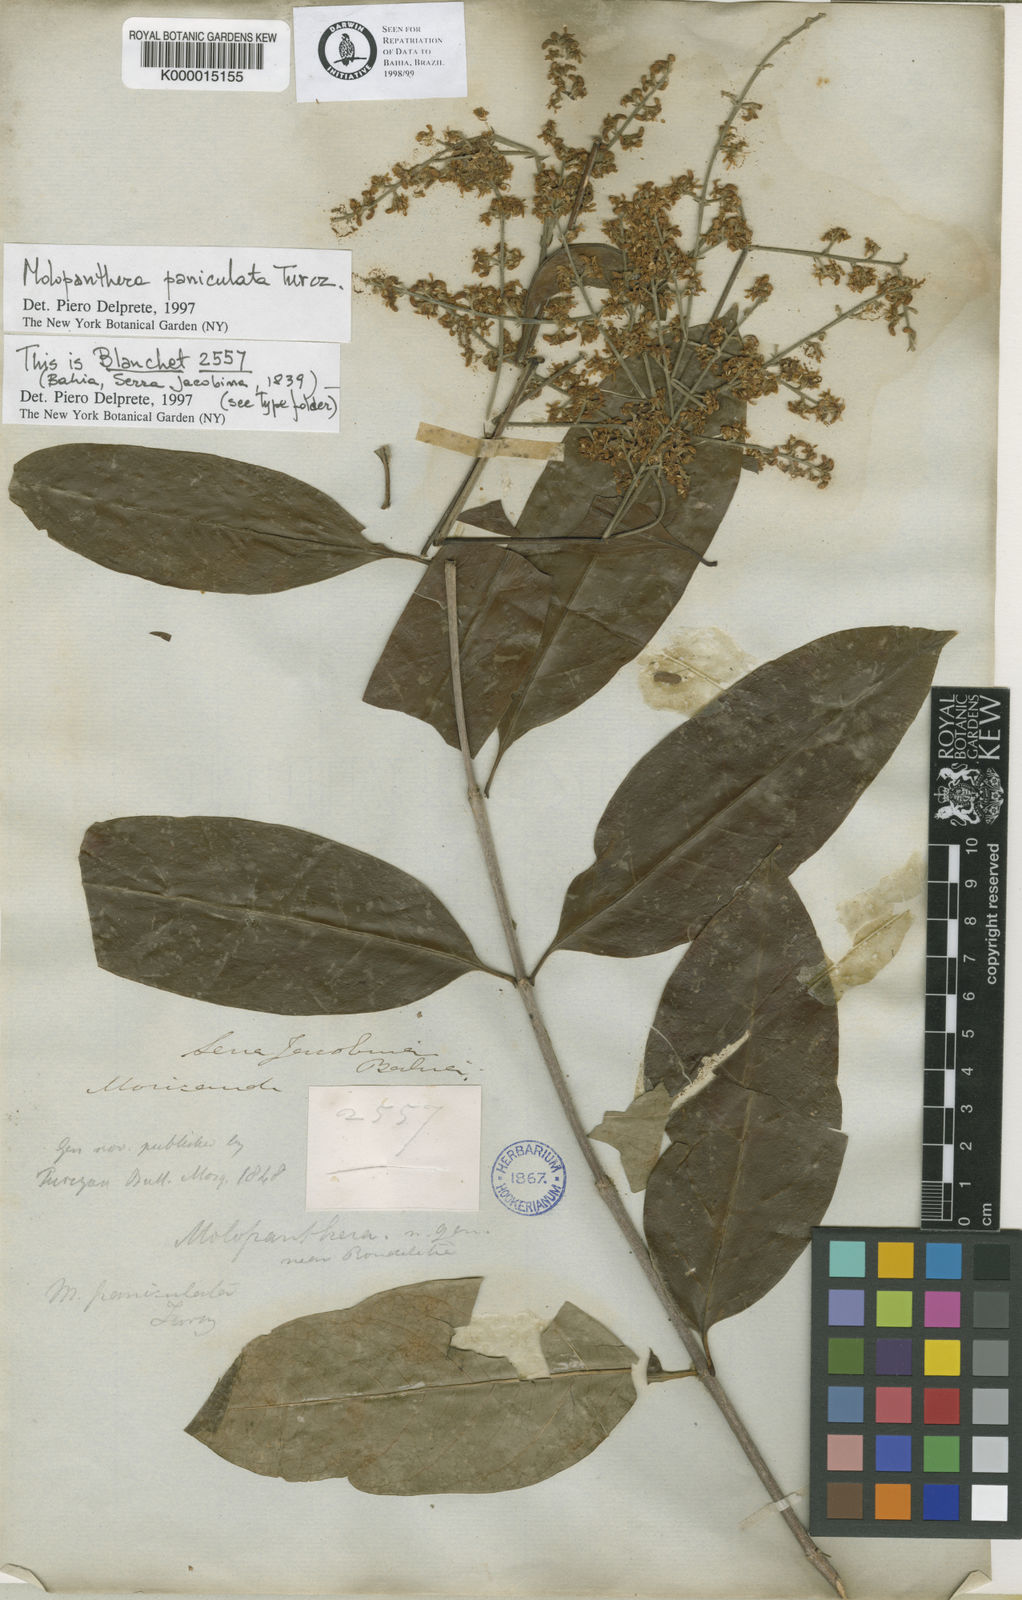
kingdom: Plantae
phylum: Tracheophyta
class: Magnoliopsida
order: Gentianales
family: Rubiaceae
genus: Molopanthera
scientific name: Molopanthera paniculata
